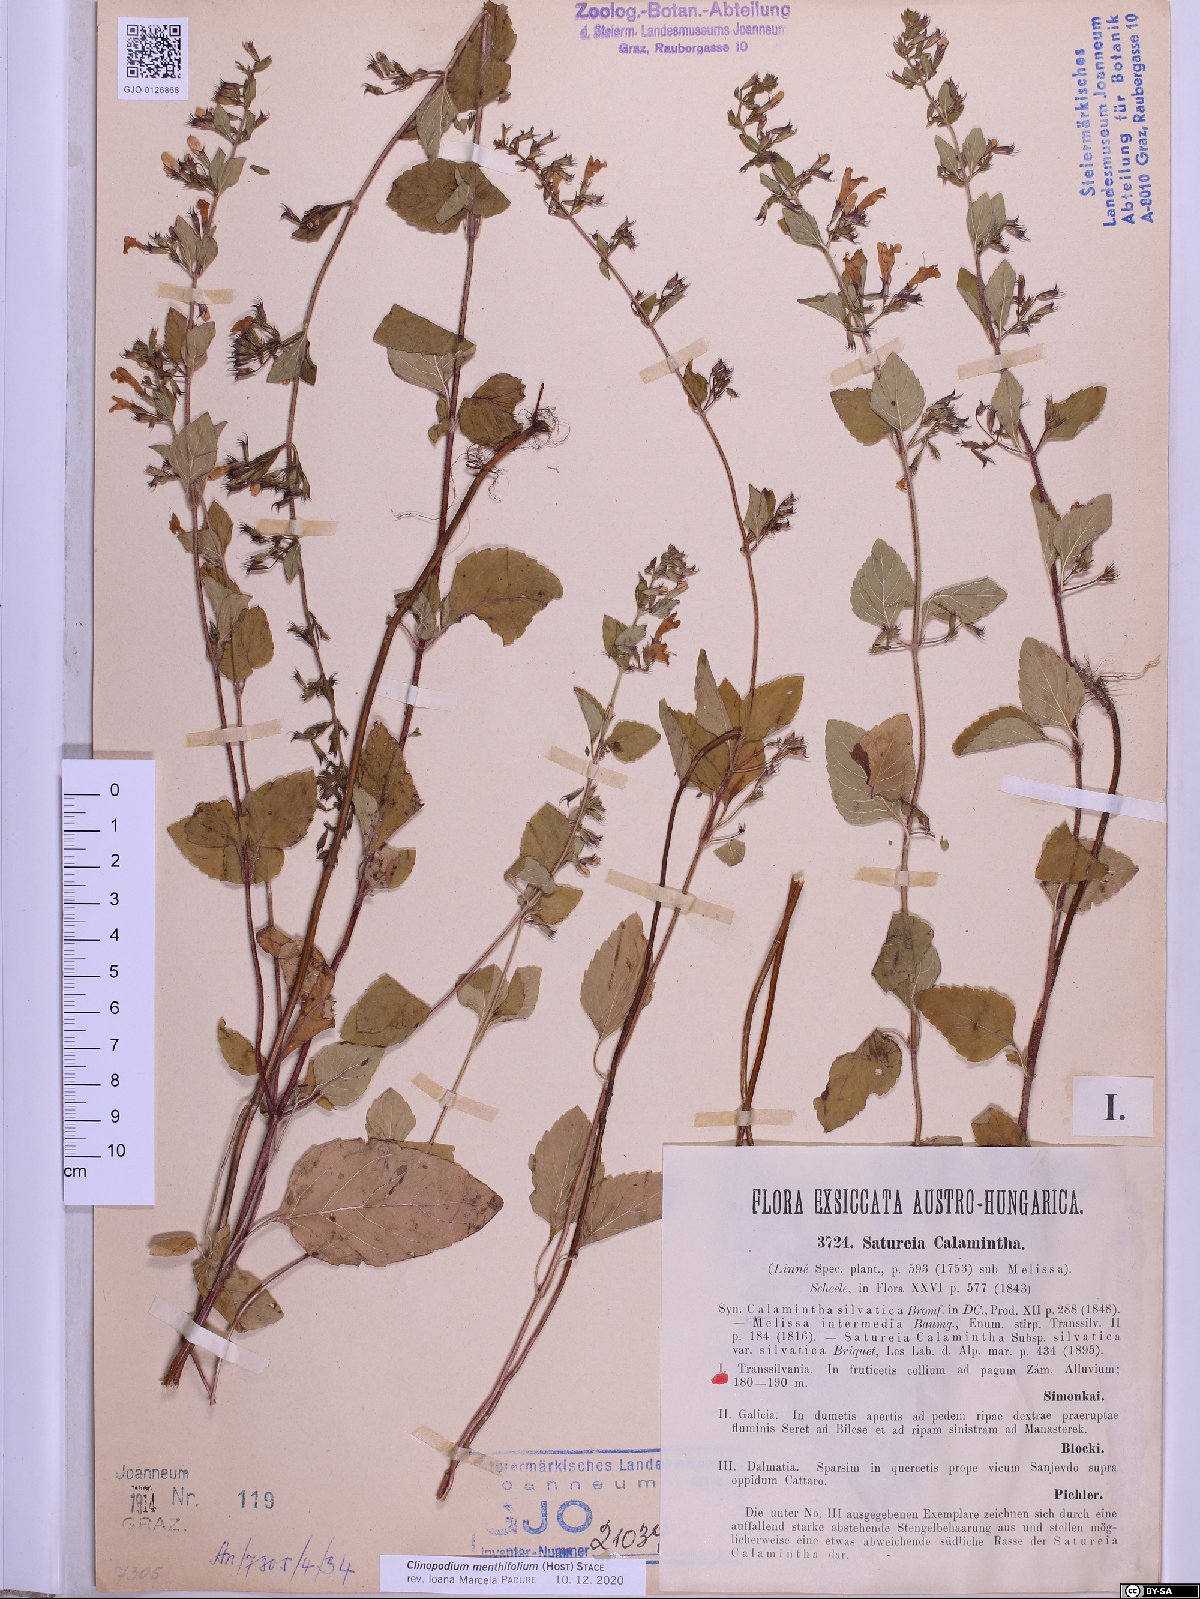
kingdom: Plantae
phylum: Tracheophyta
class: Magnoliopsida
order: Lamiales
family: Lamiaceae
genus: Clinopodium
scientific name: Clinopodium menthifolium
